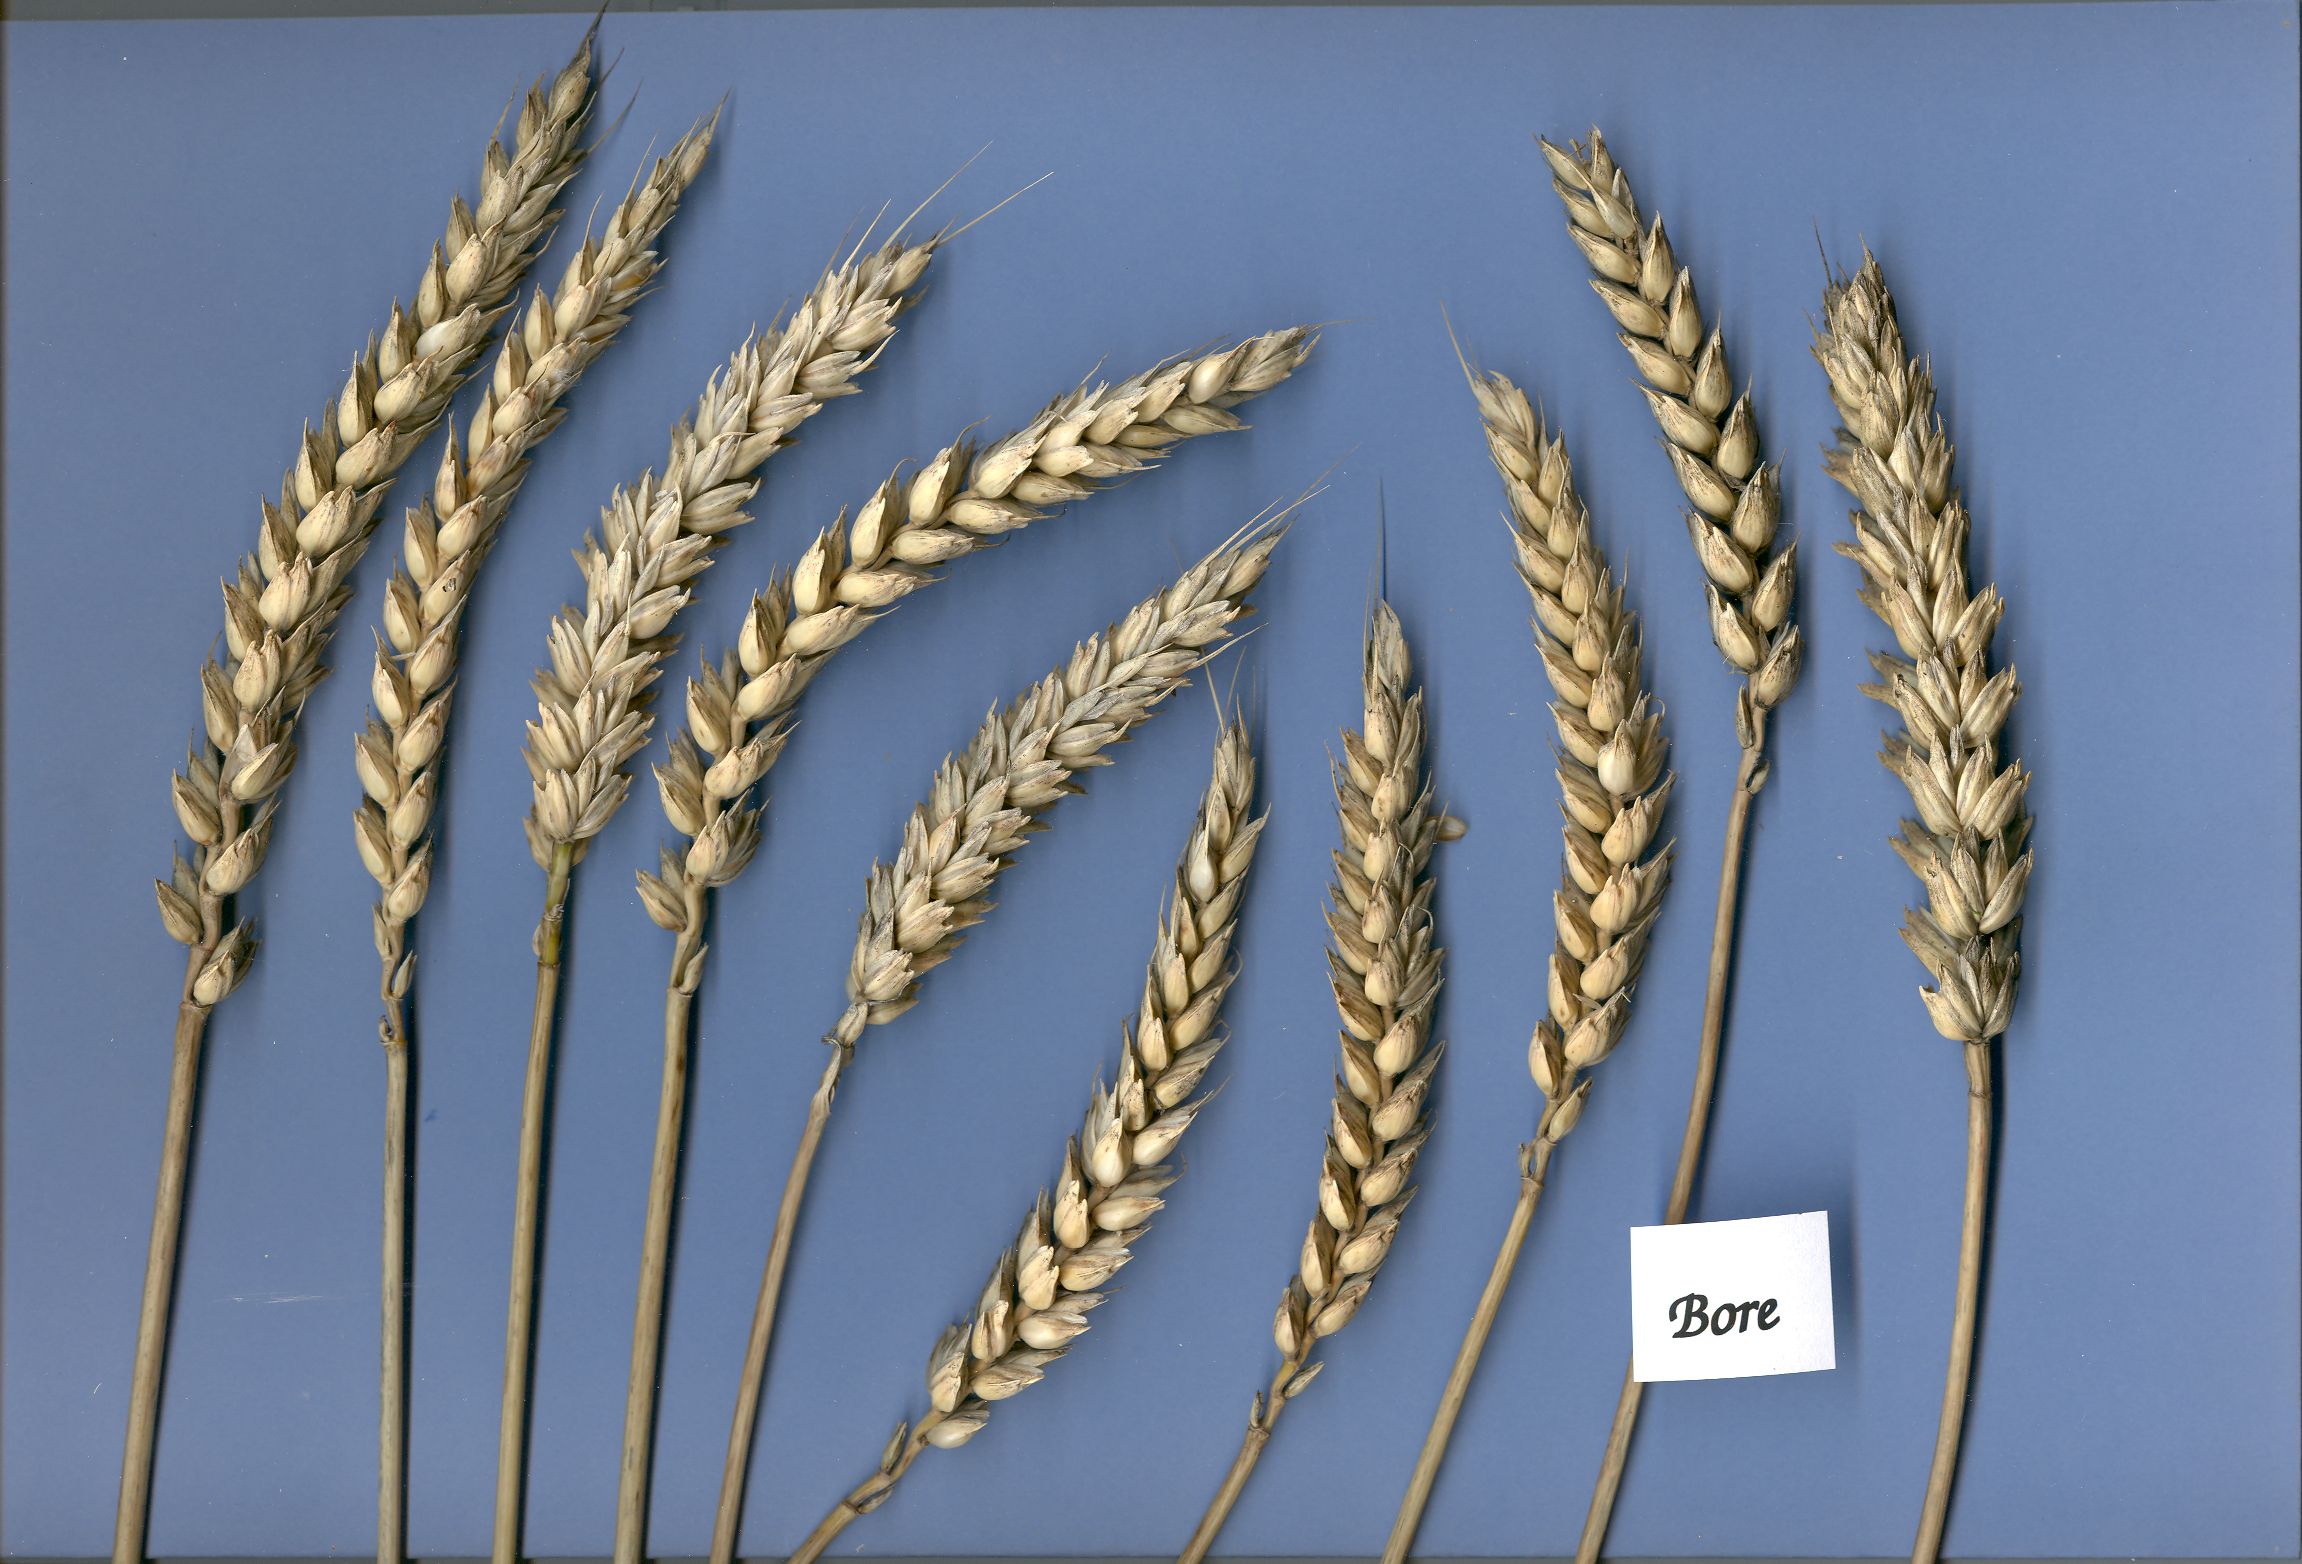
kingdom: Plantae
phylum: Tracheophyta
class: Liliopsida
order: Poales
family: Poaceae
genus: Triticum
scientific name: Triticum aestivum
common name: Common wheat
